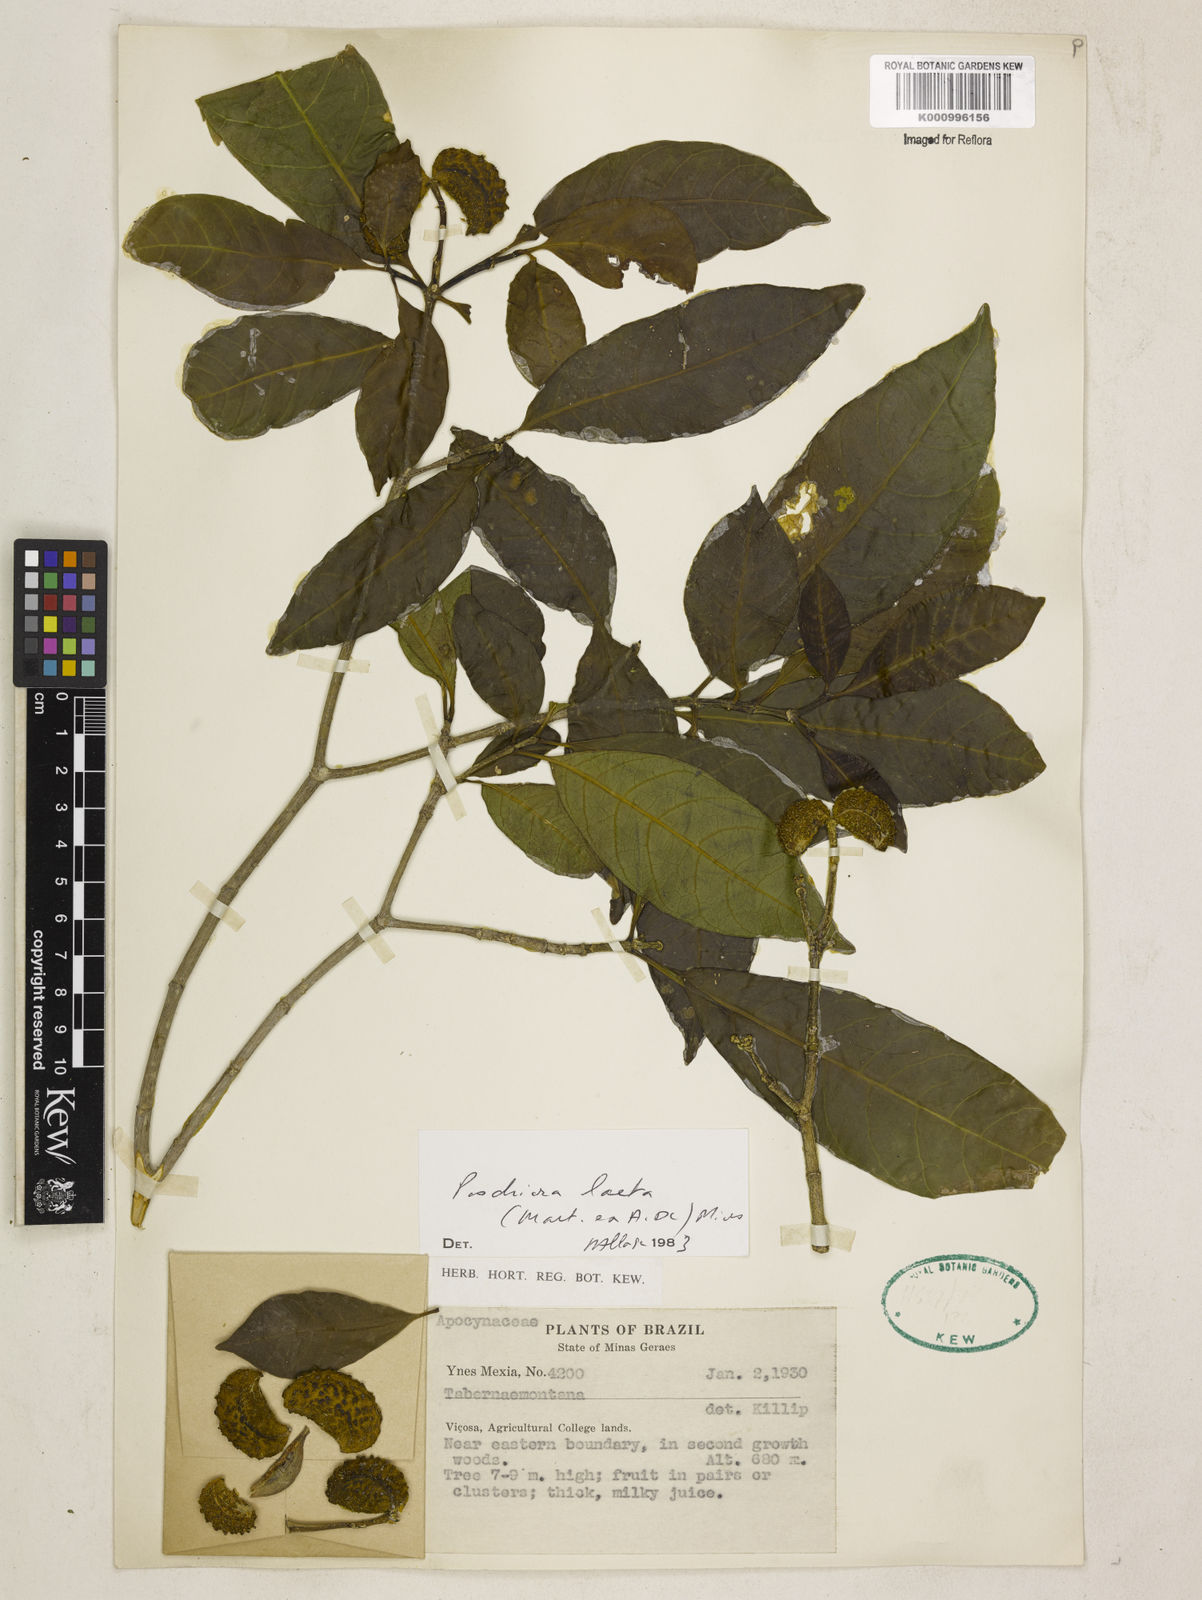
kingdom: Plantae
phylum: Tracheophyta
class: Magnoliopsida
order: Gentianales
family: Apocynaceae
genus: Tabernaemontana
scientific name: Tabernaemontana laeta
